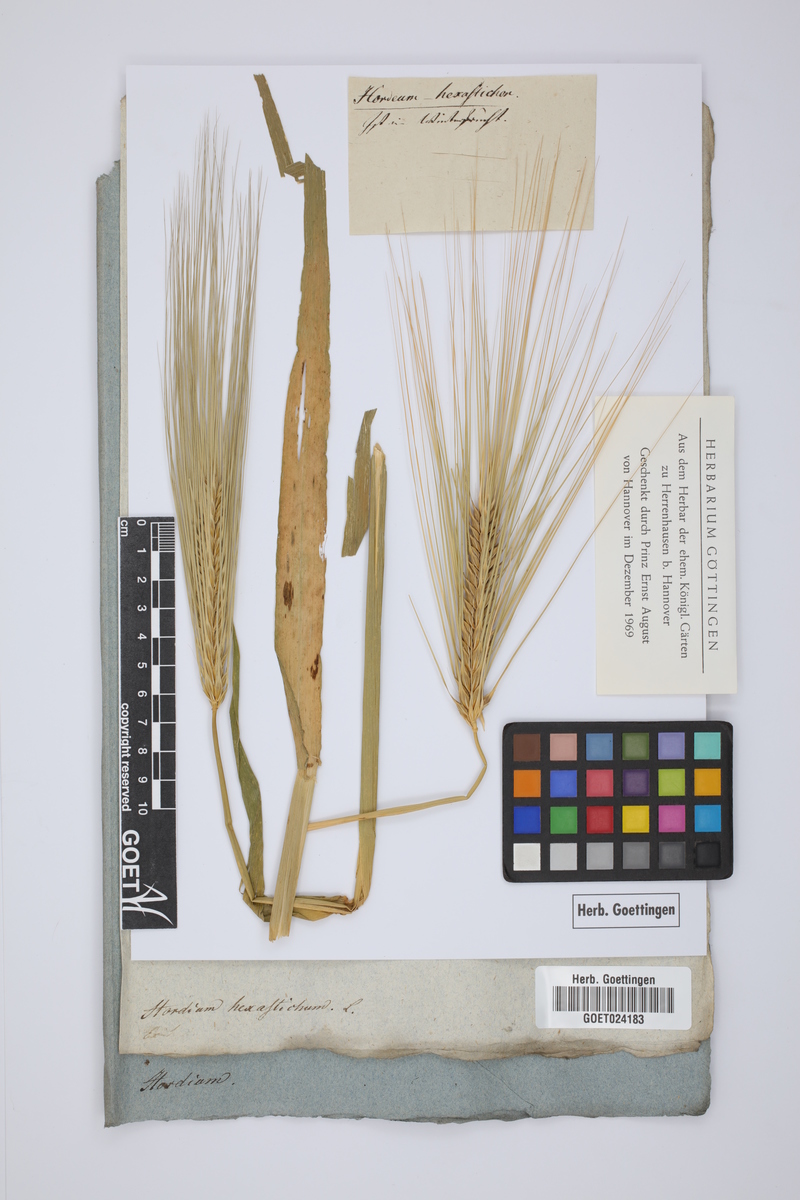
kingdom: Plantae
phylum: Tracheophyta
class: Liliopsida
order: Poales
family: Poaceae
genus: Hordeum
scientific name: Hordeum vulgare
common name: Common barley
